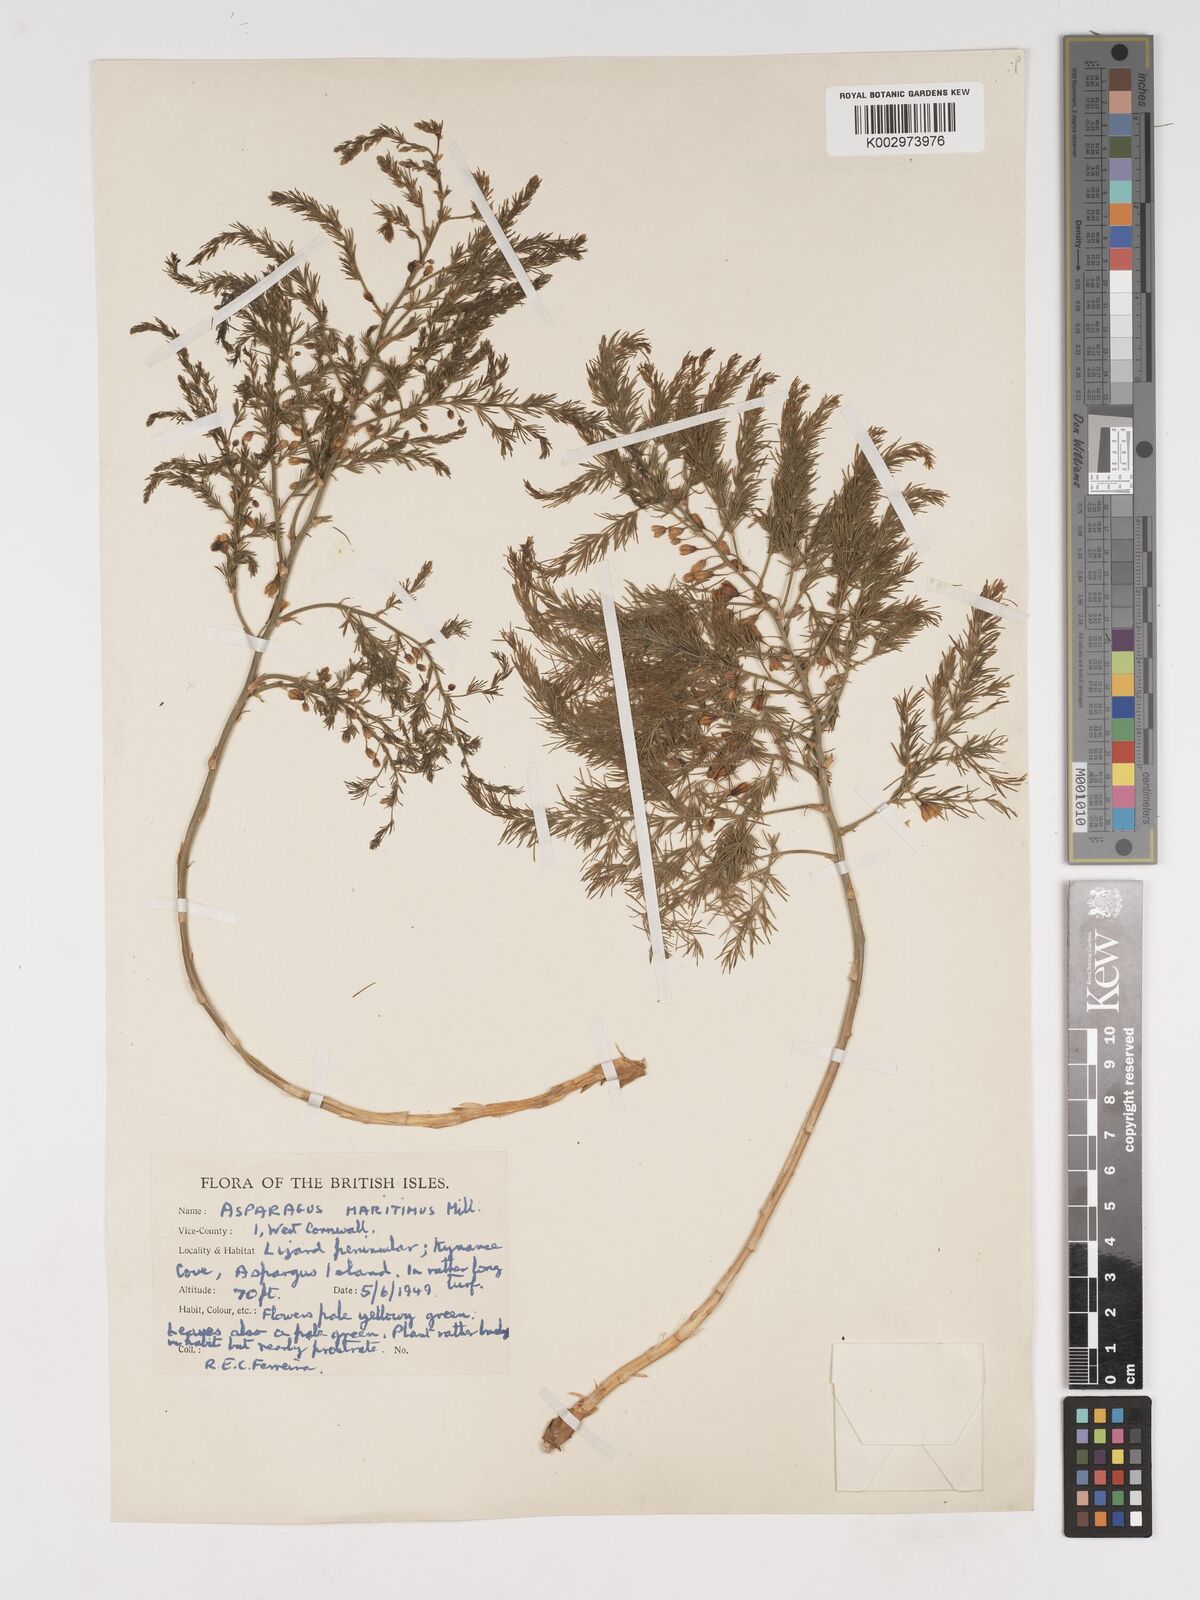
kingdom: Plantae
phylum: Tracheophyta
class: Liliopsida
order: Asparagales
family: Asparagaceae
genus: Asparagus
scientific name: Asparagus maritimus
